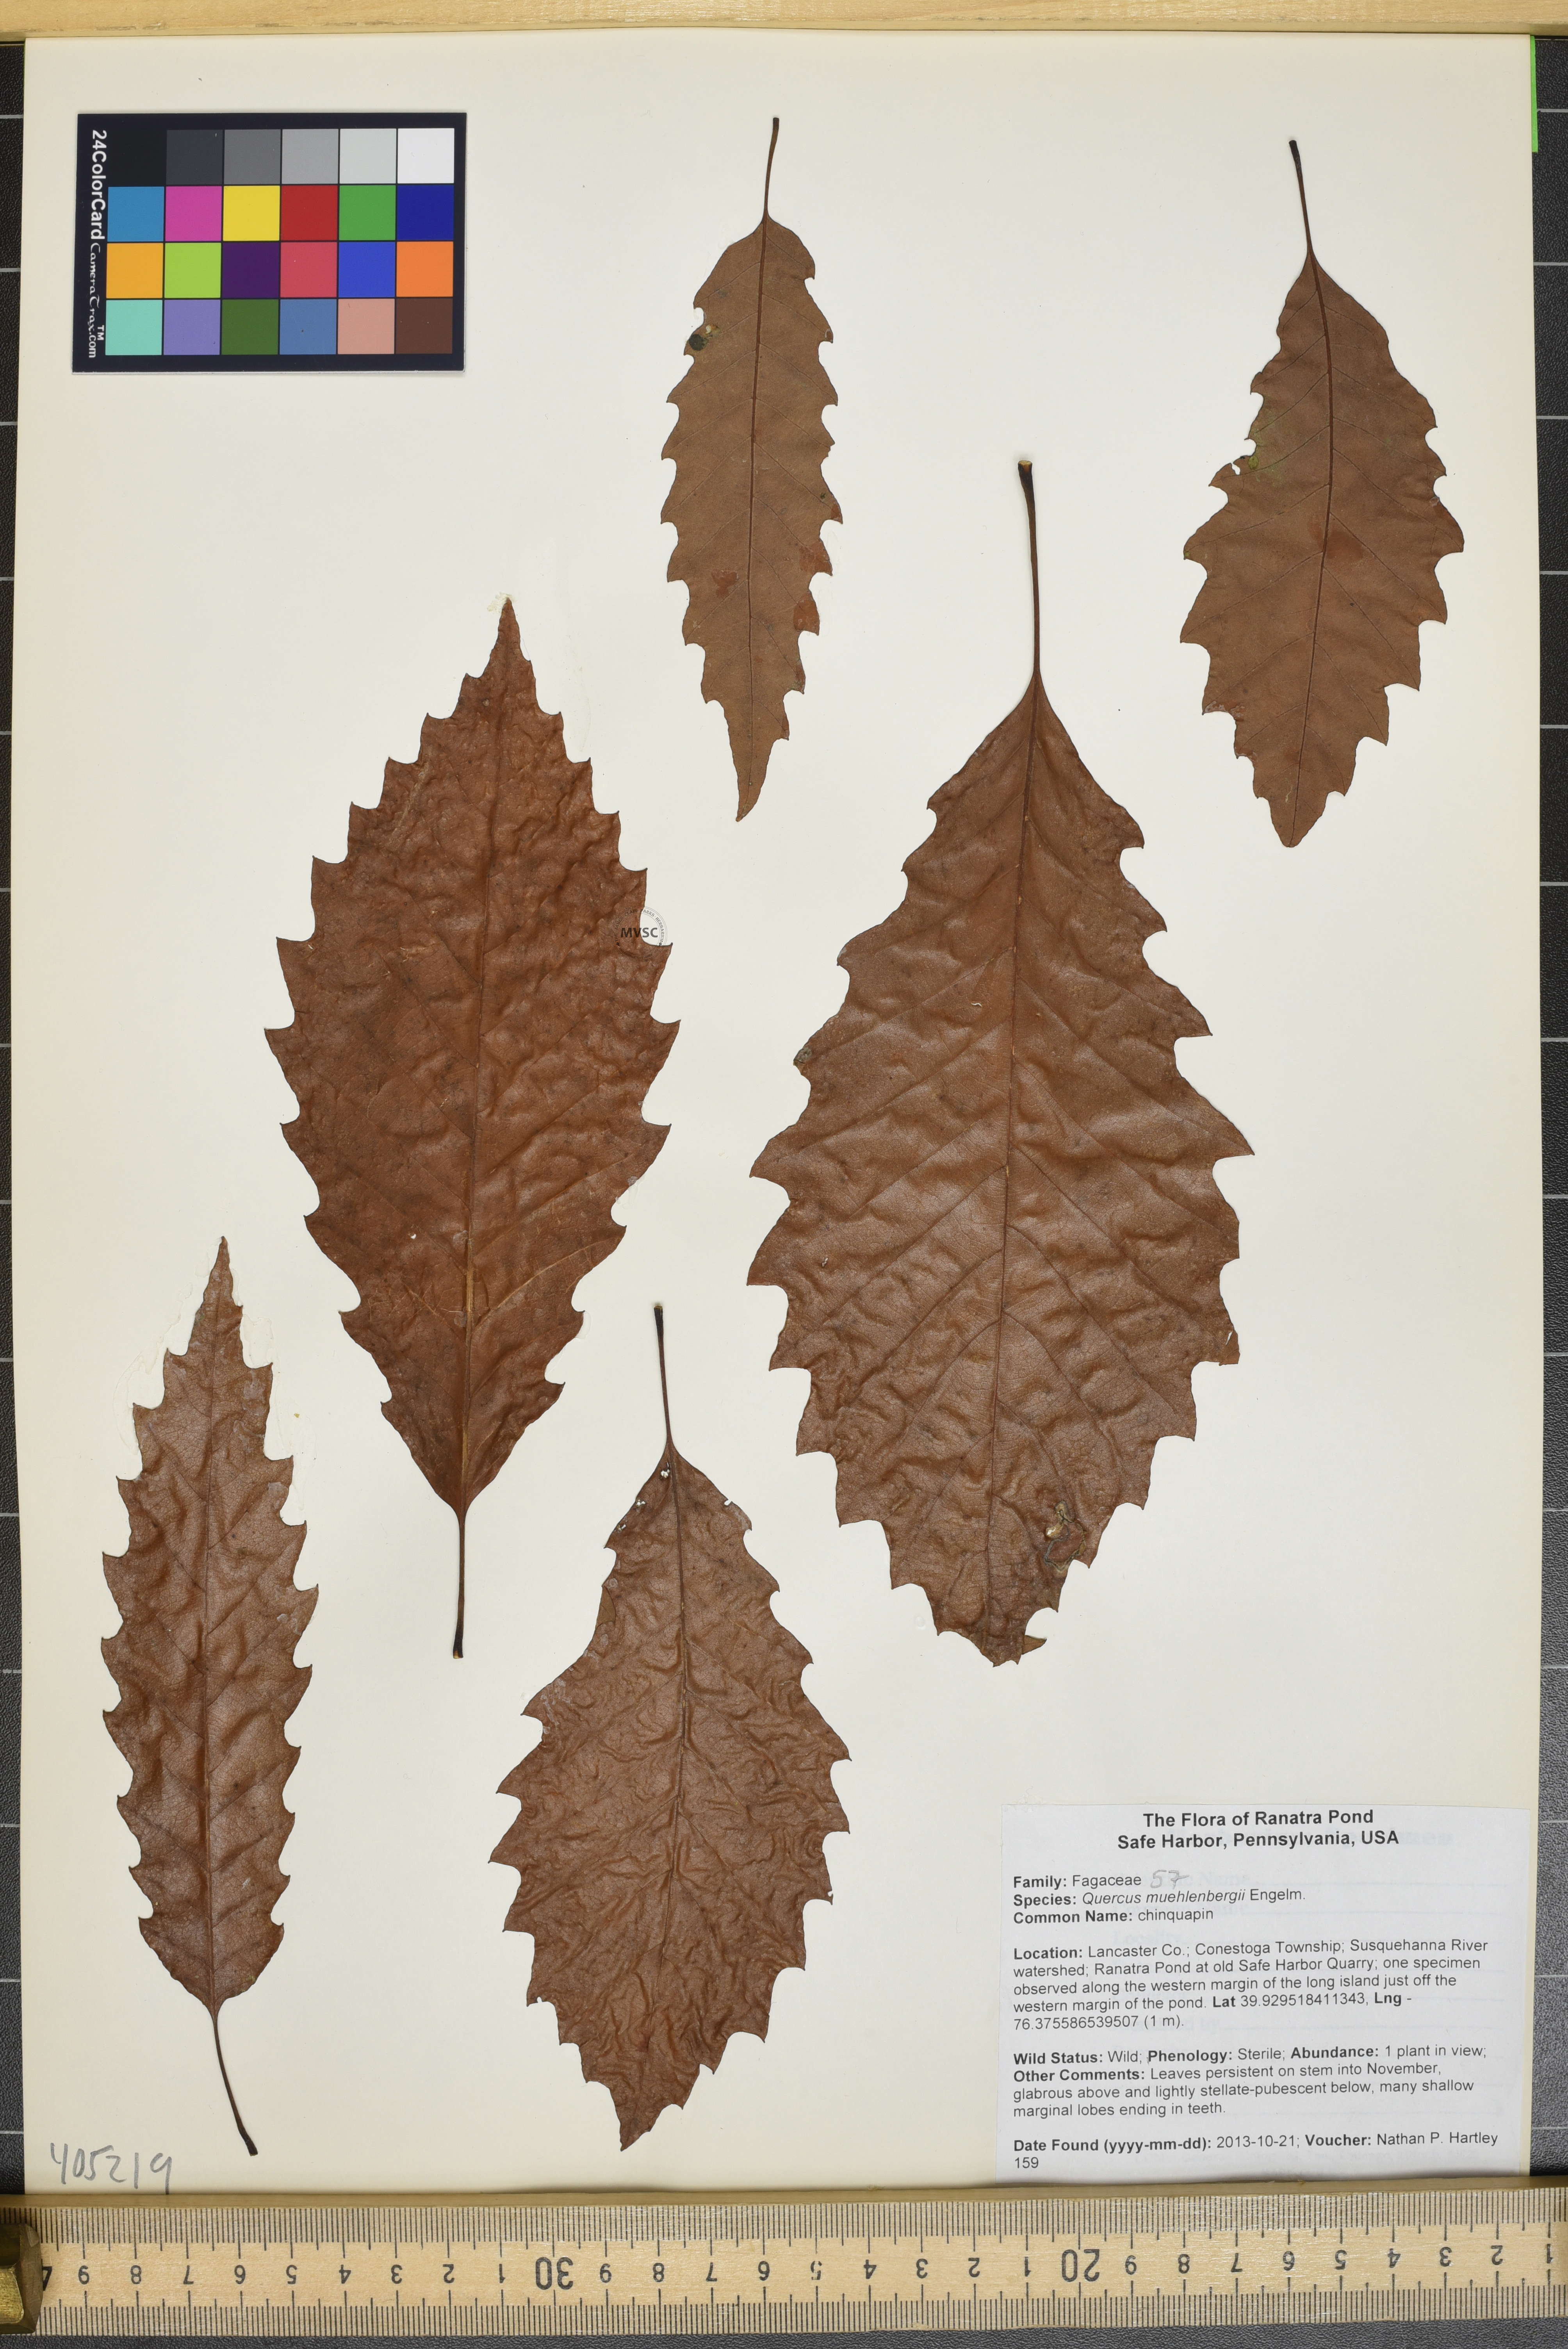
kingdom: Plantae
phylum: Tracheophyta
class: Magnoliopsida
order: Fagales
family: Fagaceae
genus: Quercus
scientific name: Quercus muehlenbergii
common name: chinquapin
